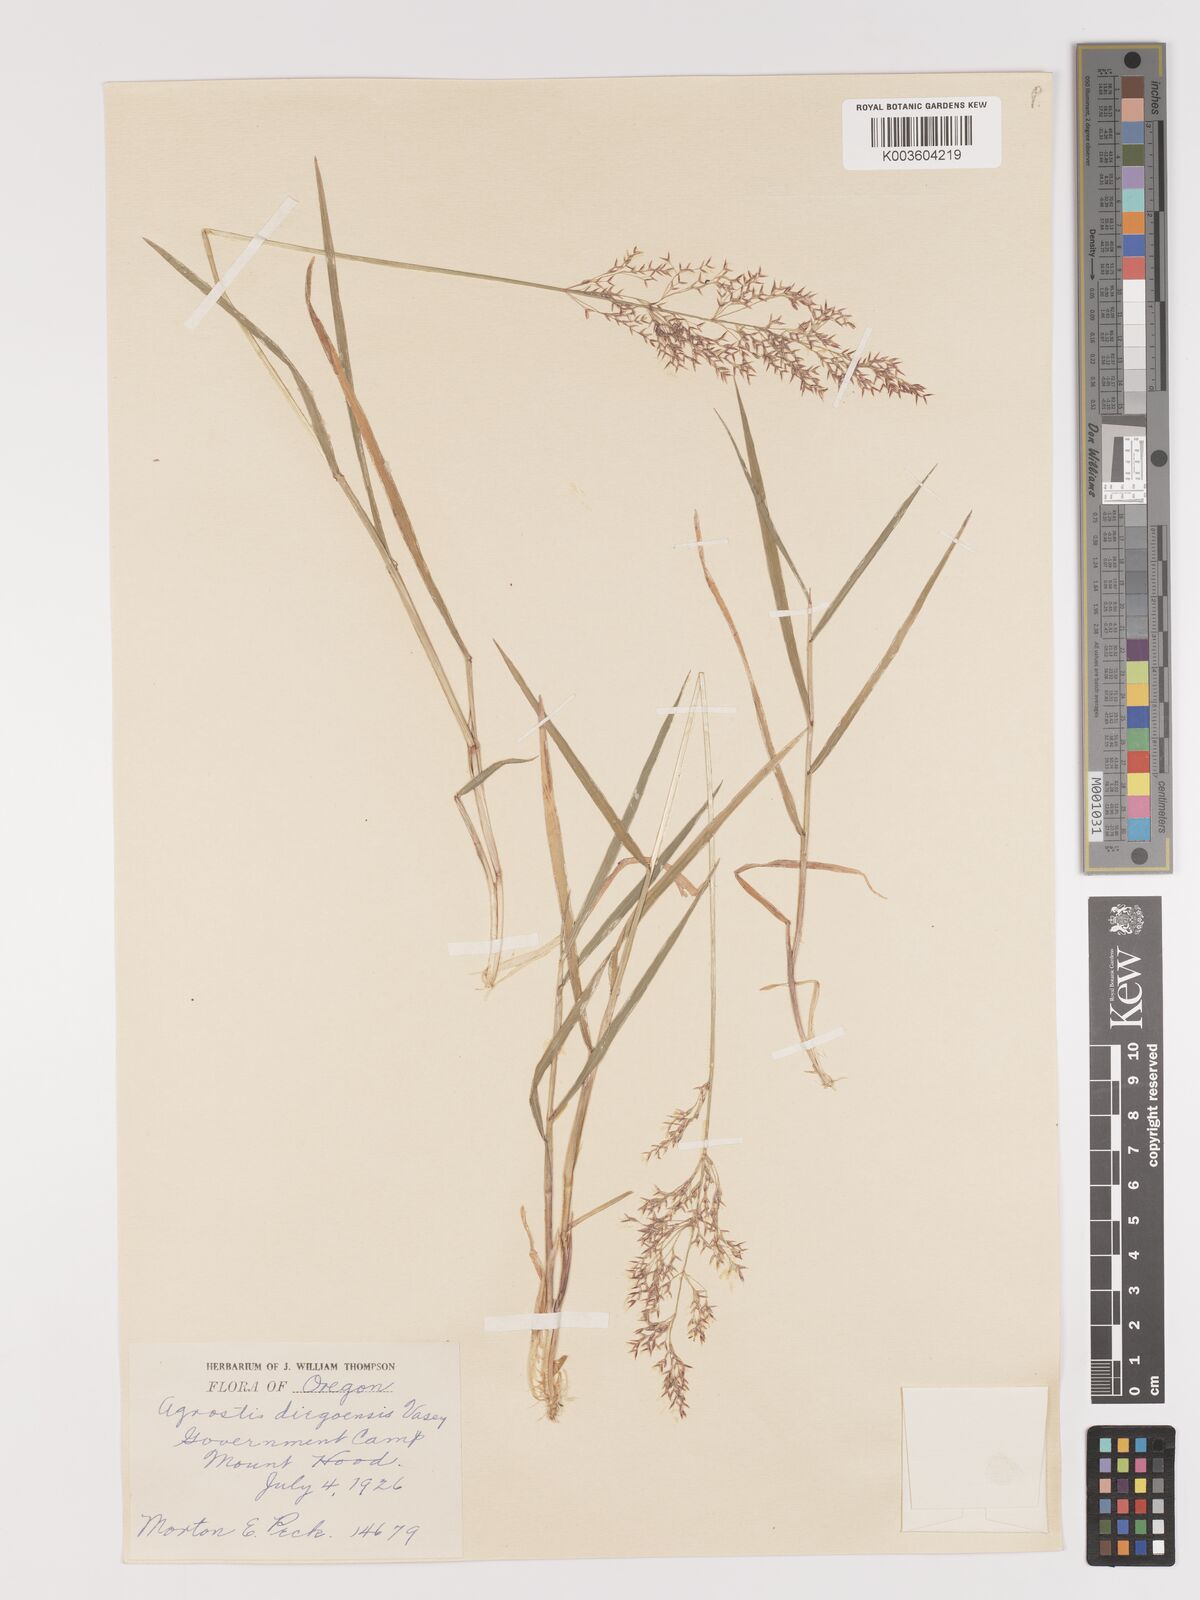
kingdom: Plantae
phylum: Tracheophyta
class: Liliopsida
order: Poales
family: Poaceae
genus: Agrostis
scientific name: Agrostis pallens
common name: Dune bent
